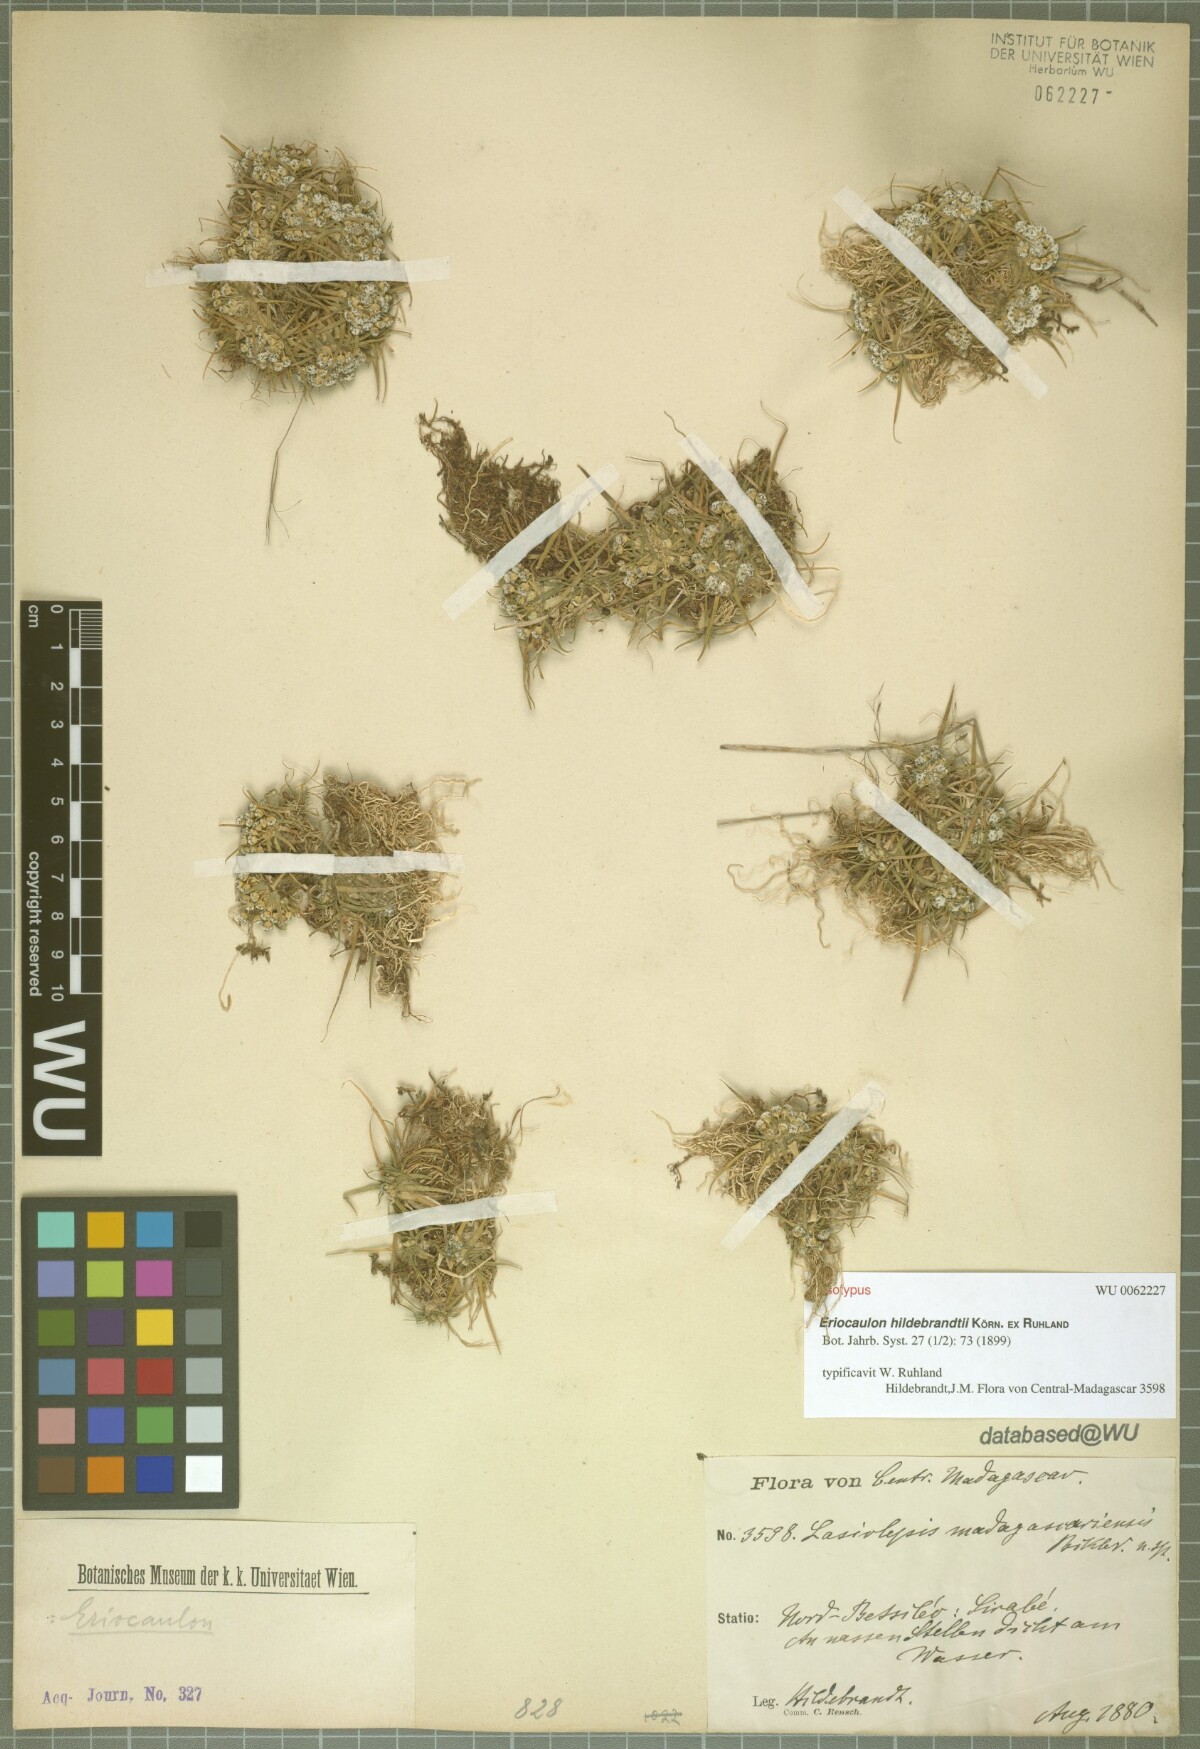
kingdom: Plantae
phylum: Tracheophyta
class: Liliopsida
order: Poales
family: Eriocaulaceae
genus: Eriocaulon
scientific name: Eriocaulon hildebrandtii
